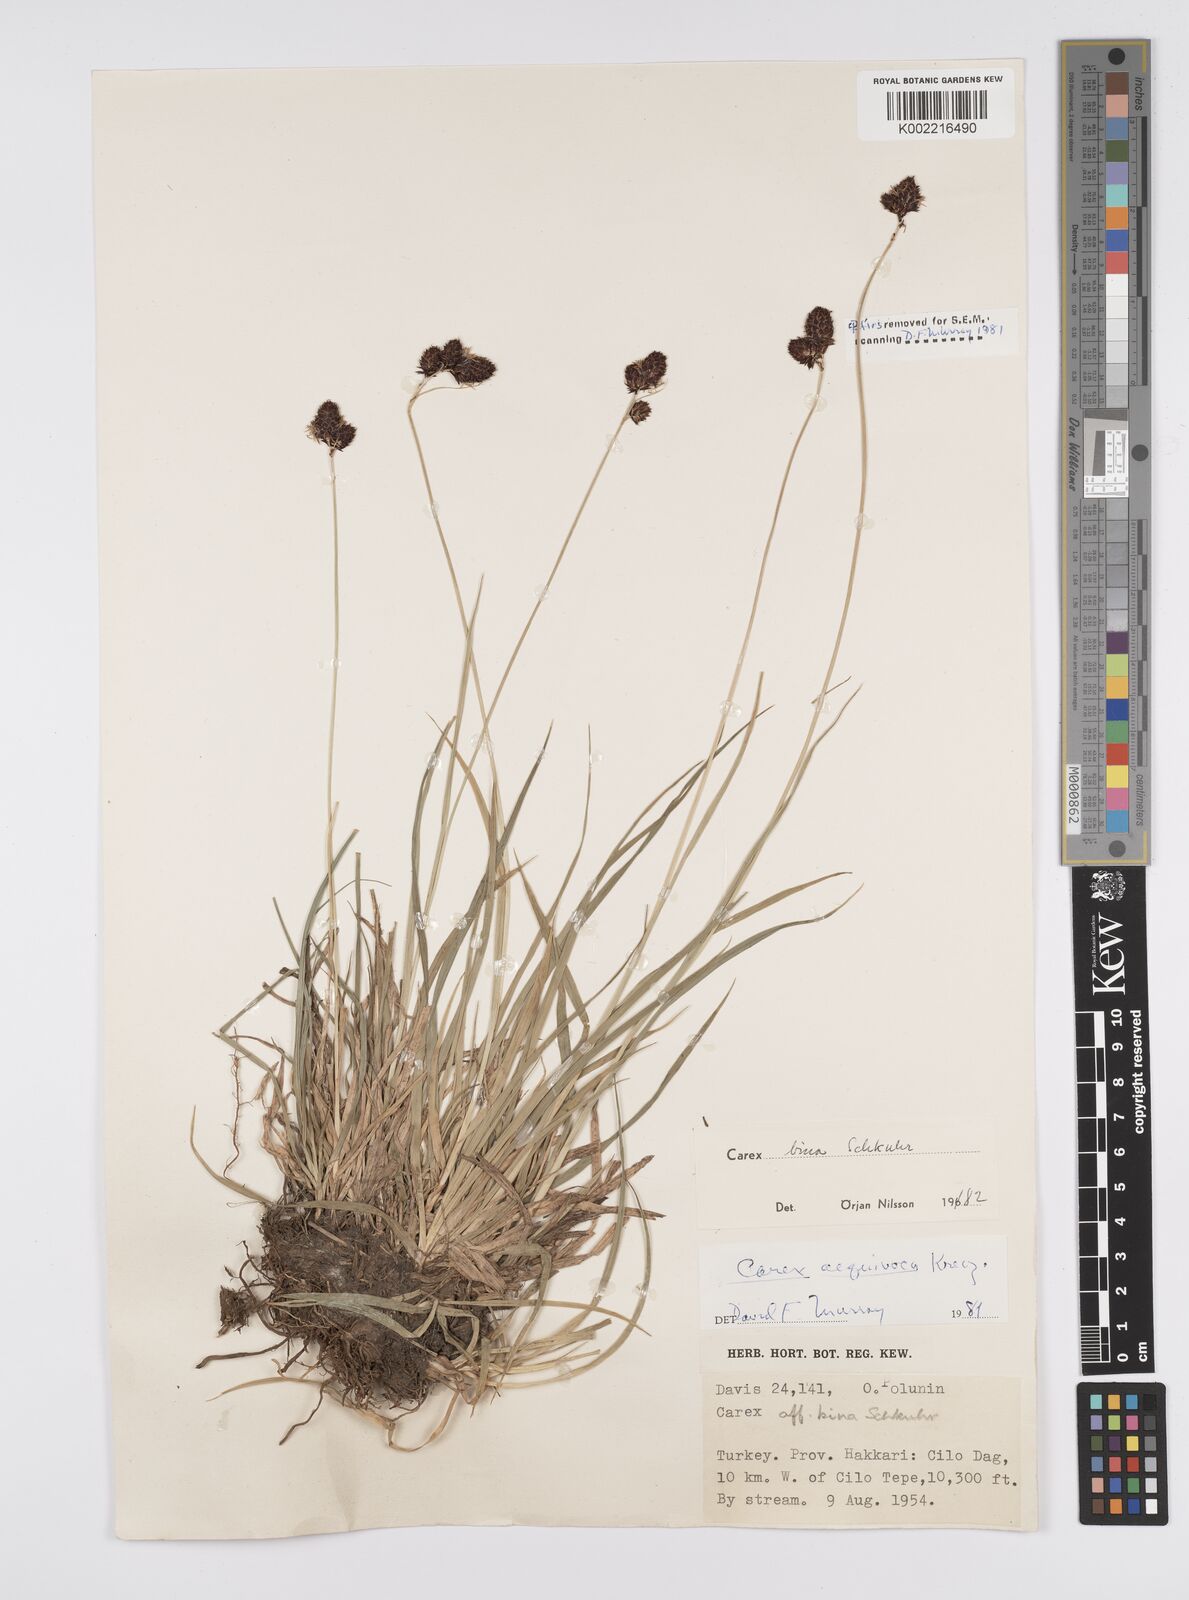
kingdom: Plantae
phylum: Tracheophyta
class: Liliopsida
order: Poales
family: Cyperaceae
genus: Carex
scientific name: Carex parviflora
